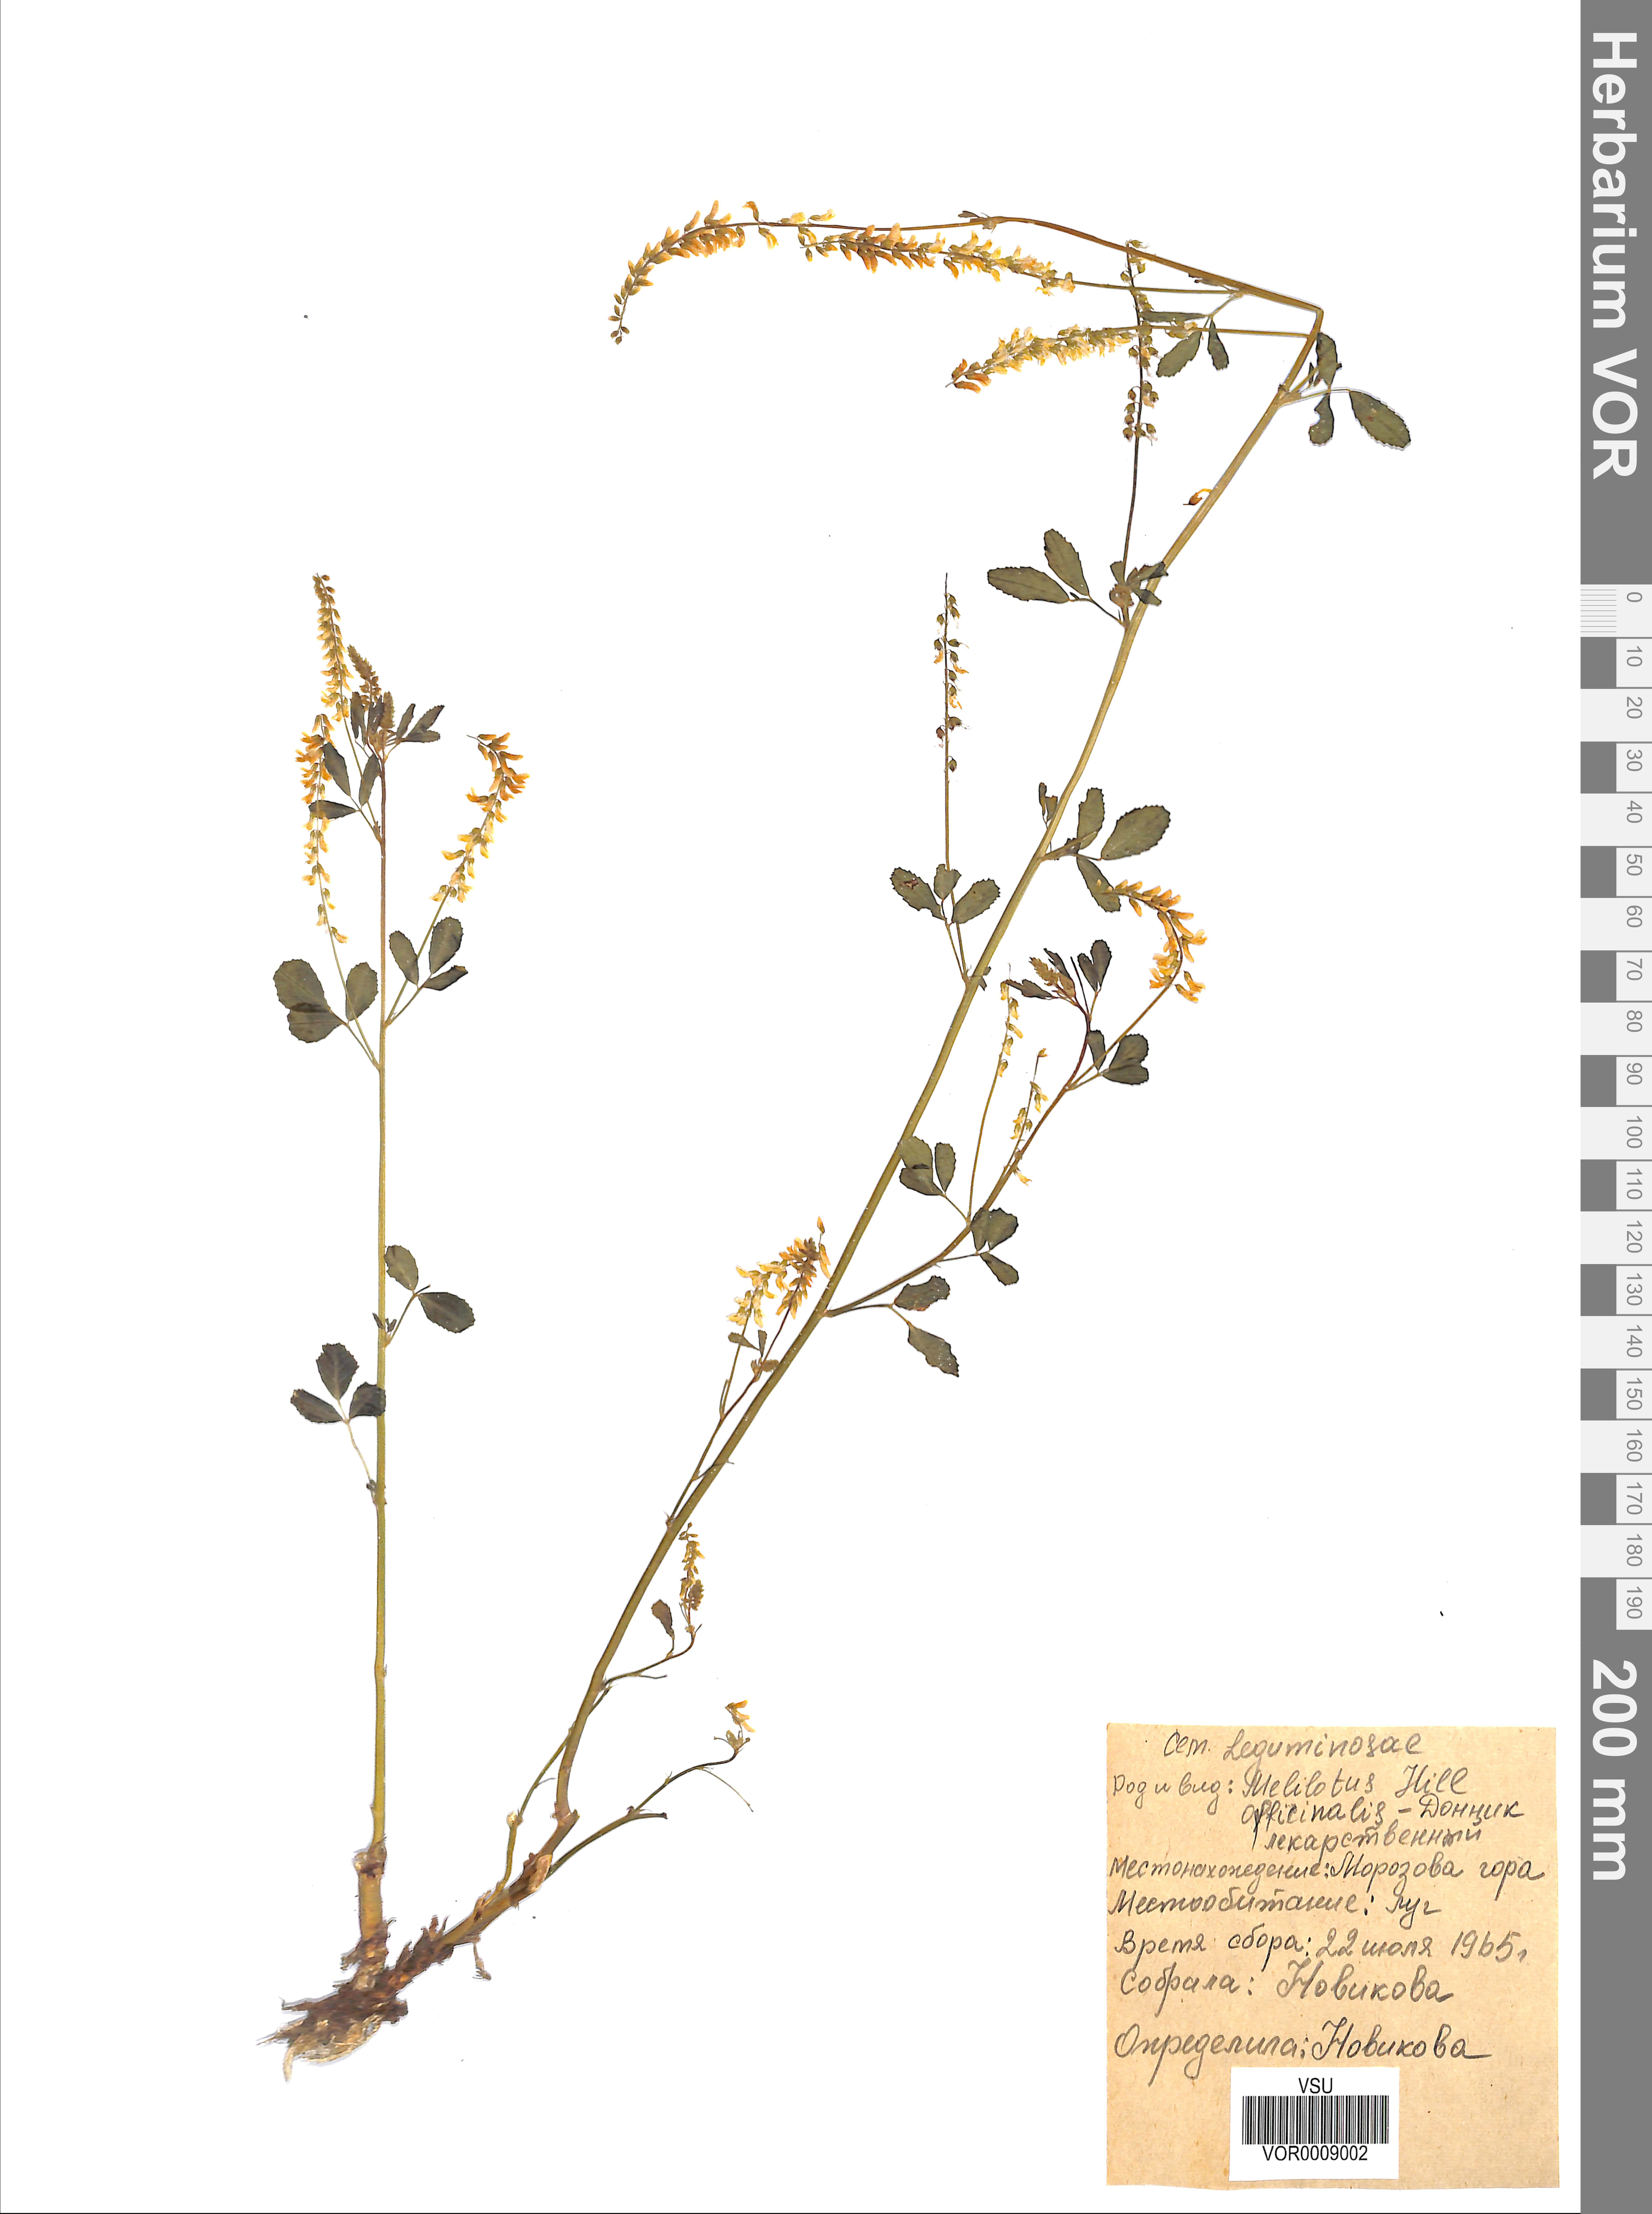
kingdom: Plantae
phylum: Tracheophyta
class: Magnoliopsida
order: Fabales
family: Fabaceae
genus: Melilotus
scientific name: Melilotus officinalis
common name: Sweetclover
